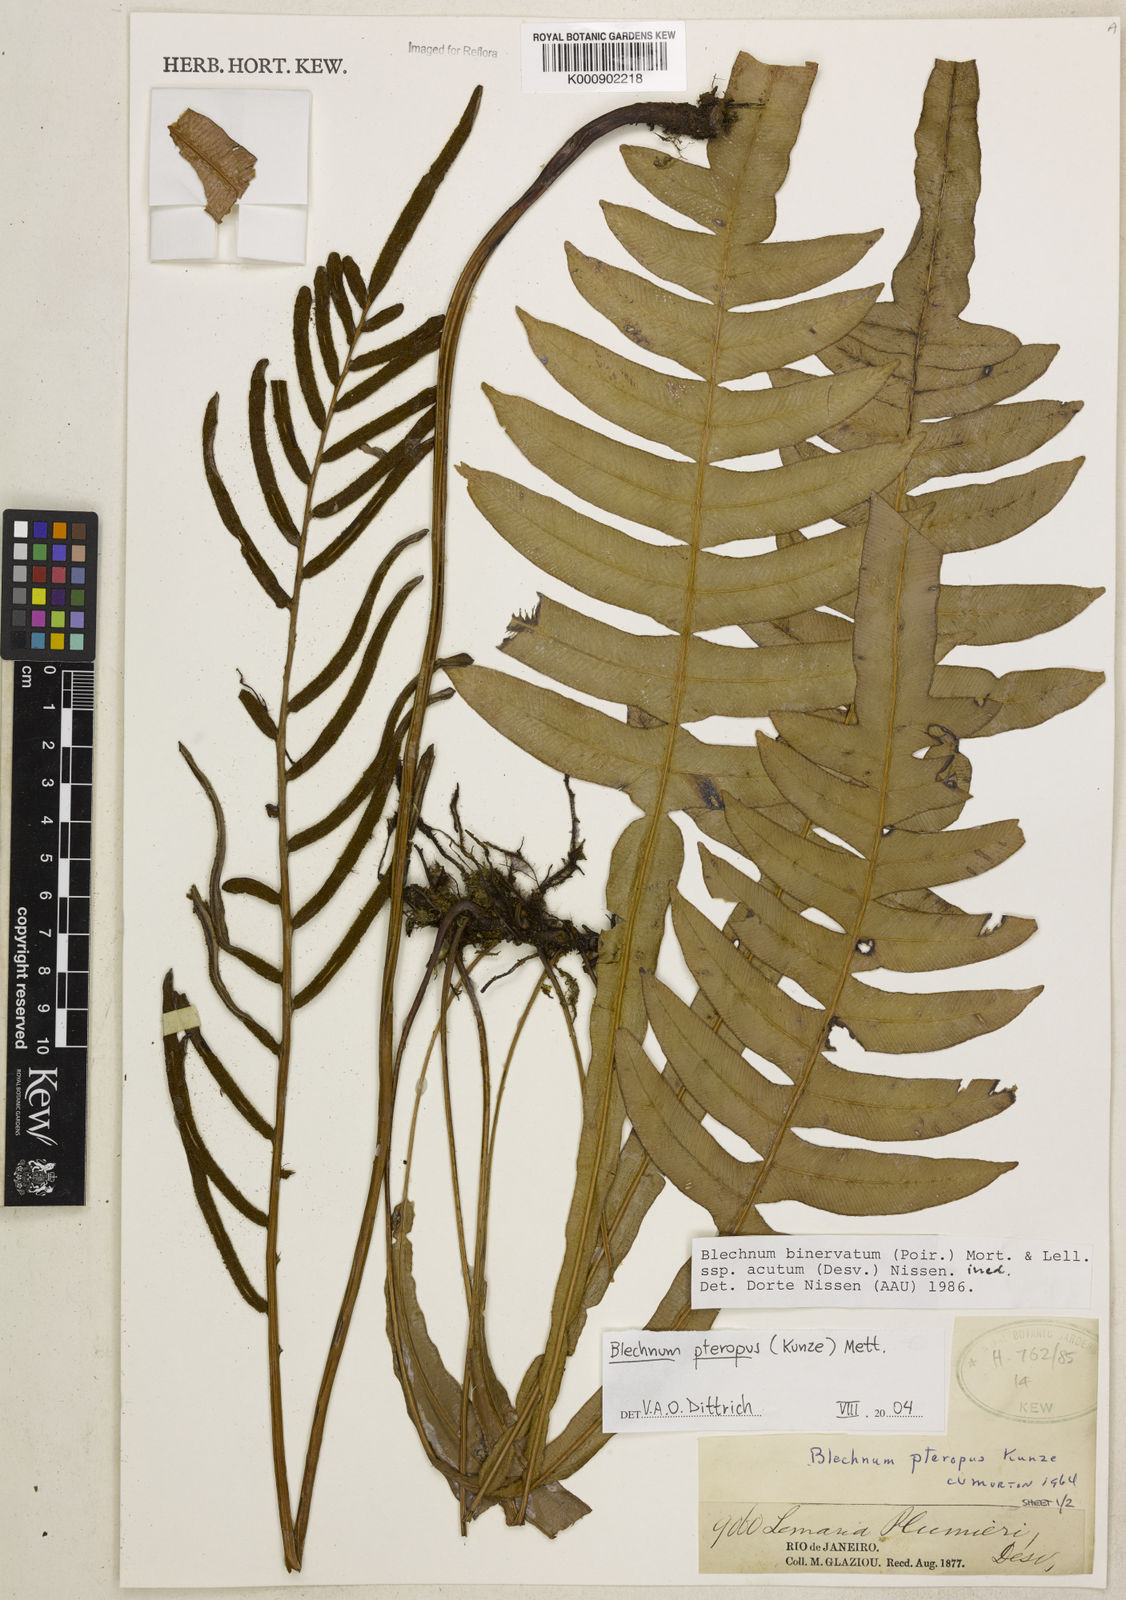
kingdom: Plantae
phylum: Tracheophyta
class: Polypodiopsida
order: Polypodiales
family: Blechnaceae
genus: Lomaridium
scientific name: Lomaridium pteropus
